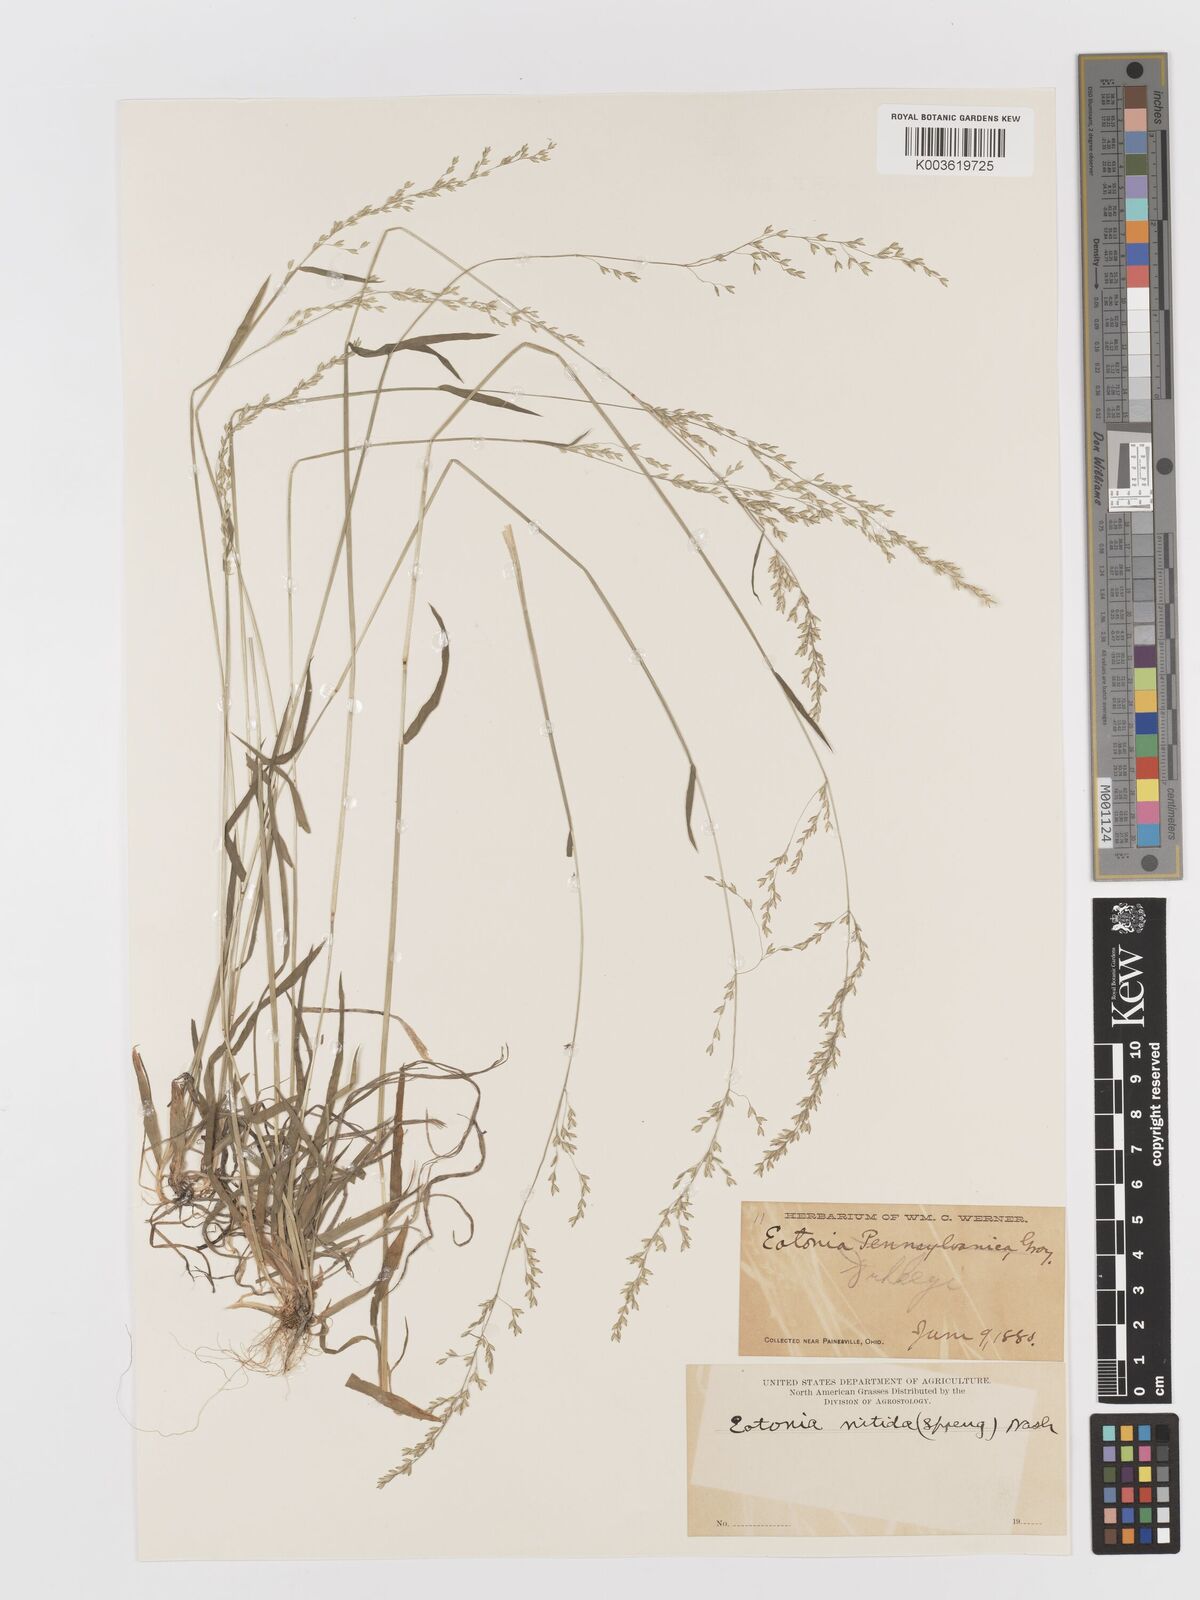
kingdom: Plantae
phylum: Tracheophyta
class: Liliopsida
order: Poales
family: Poaceae
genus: Sphenopholis
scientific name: Sphenopholis nitida
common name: Shiny wedgegrass
